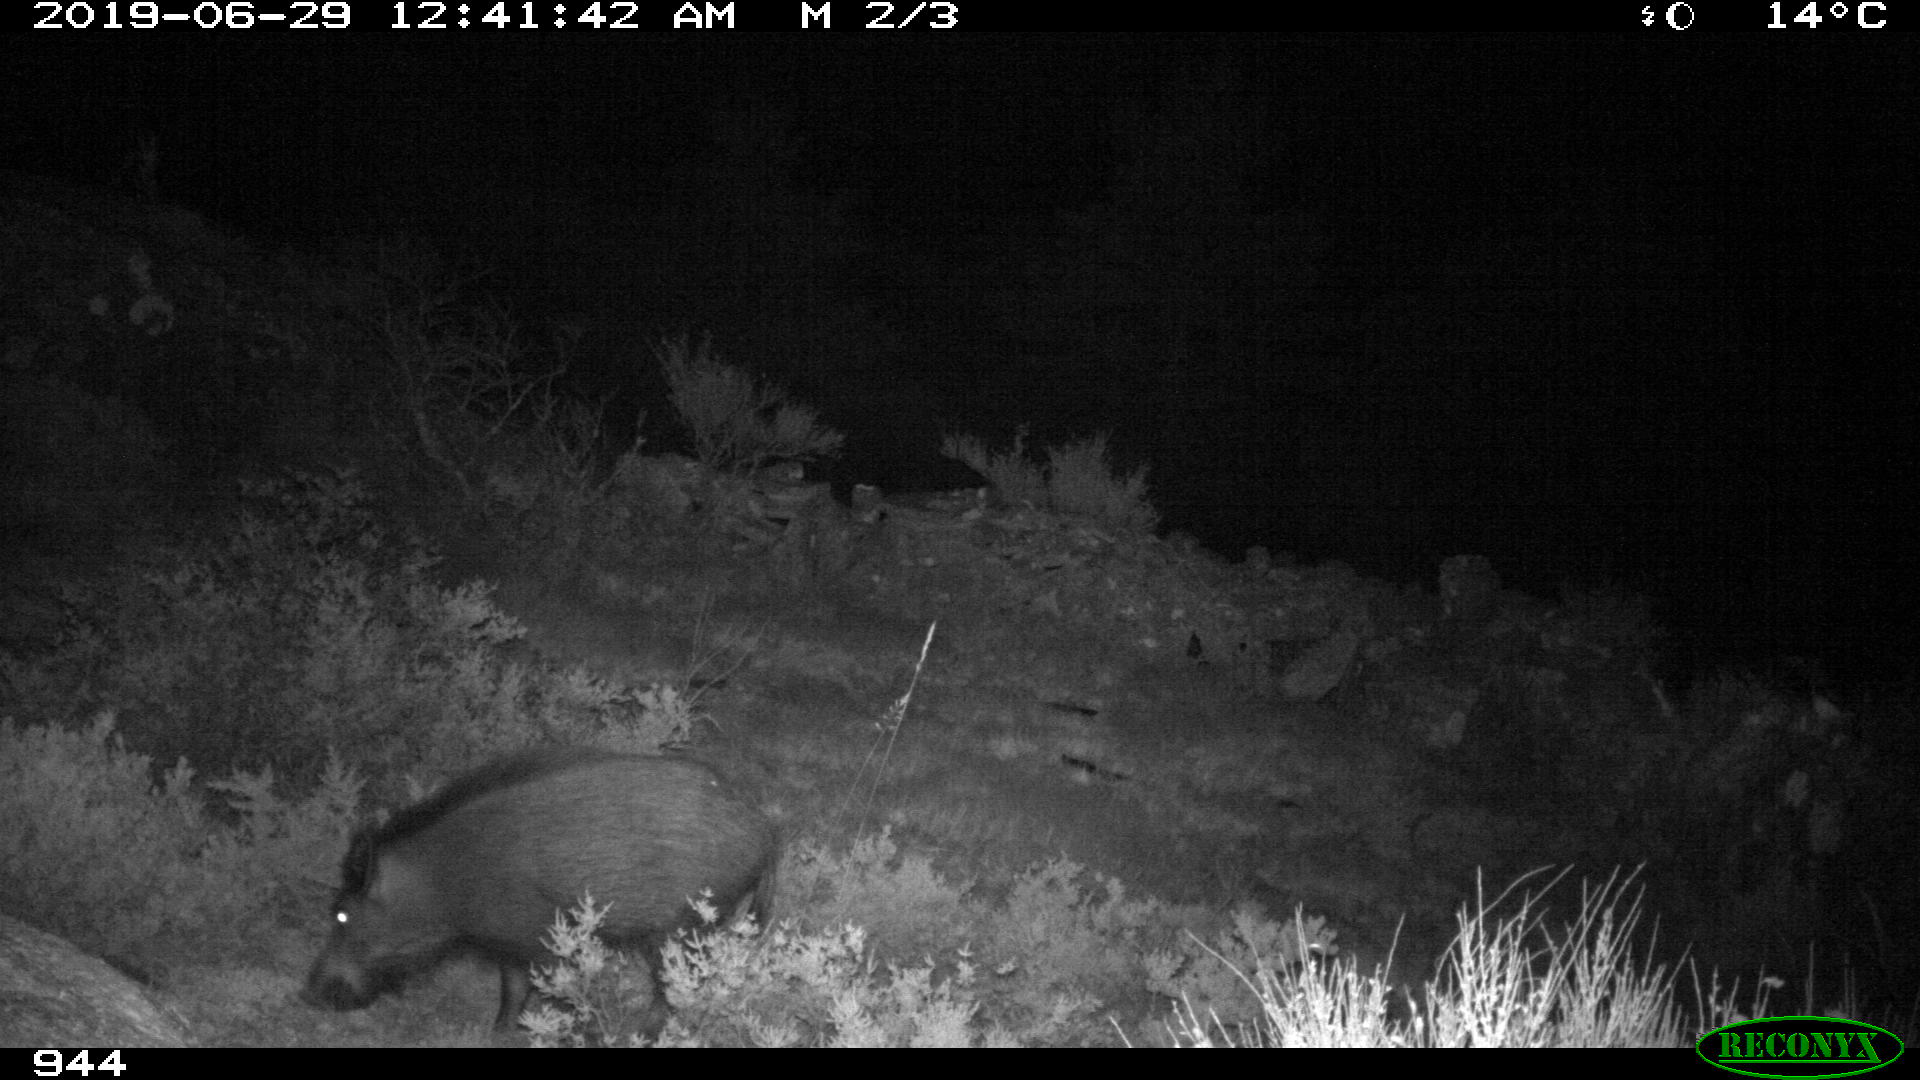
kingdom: Animalia
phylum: Chordata
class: Mammalia
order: Artiodactyla
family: Suidae
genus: Sus
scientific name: Sus scrofa
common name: Wild boar
